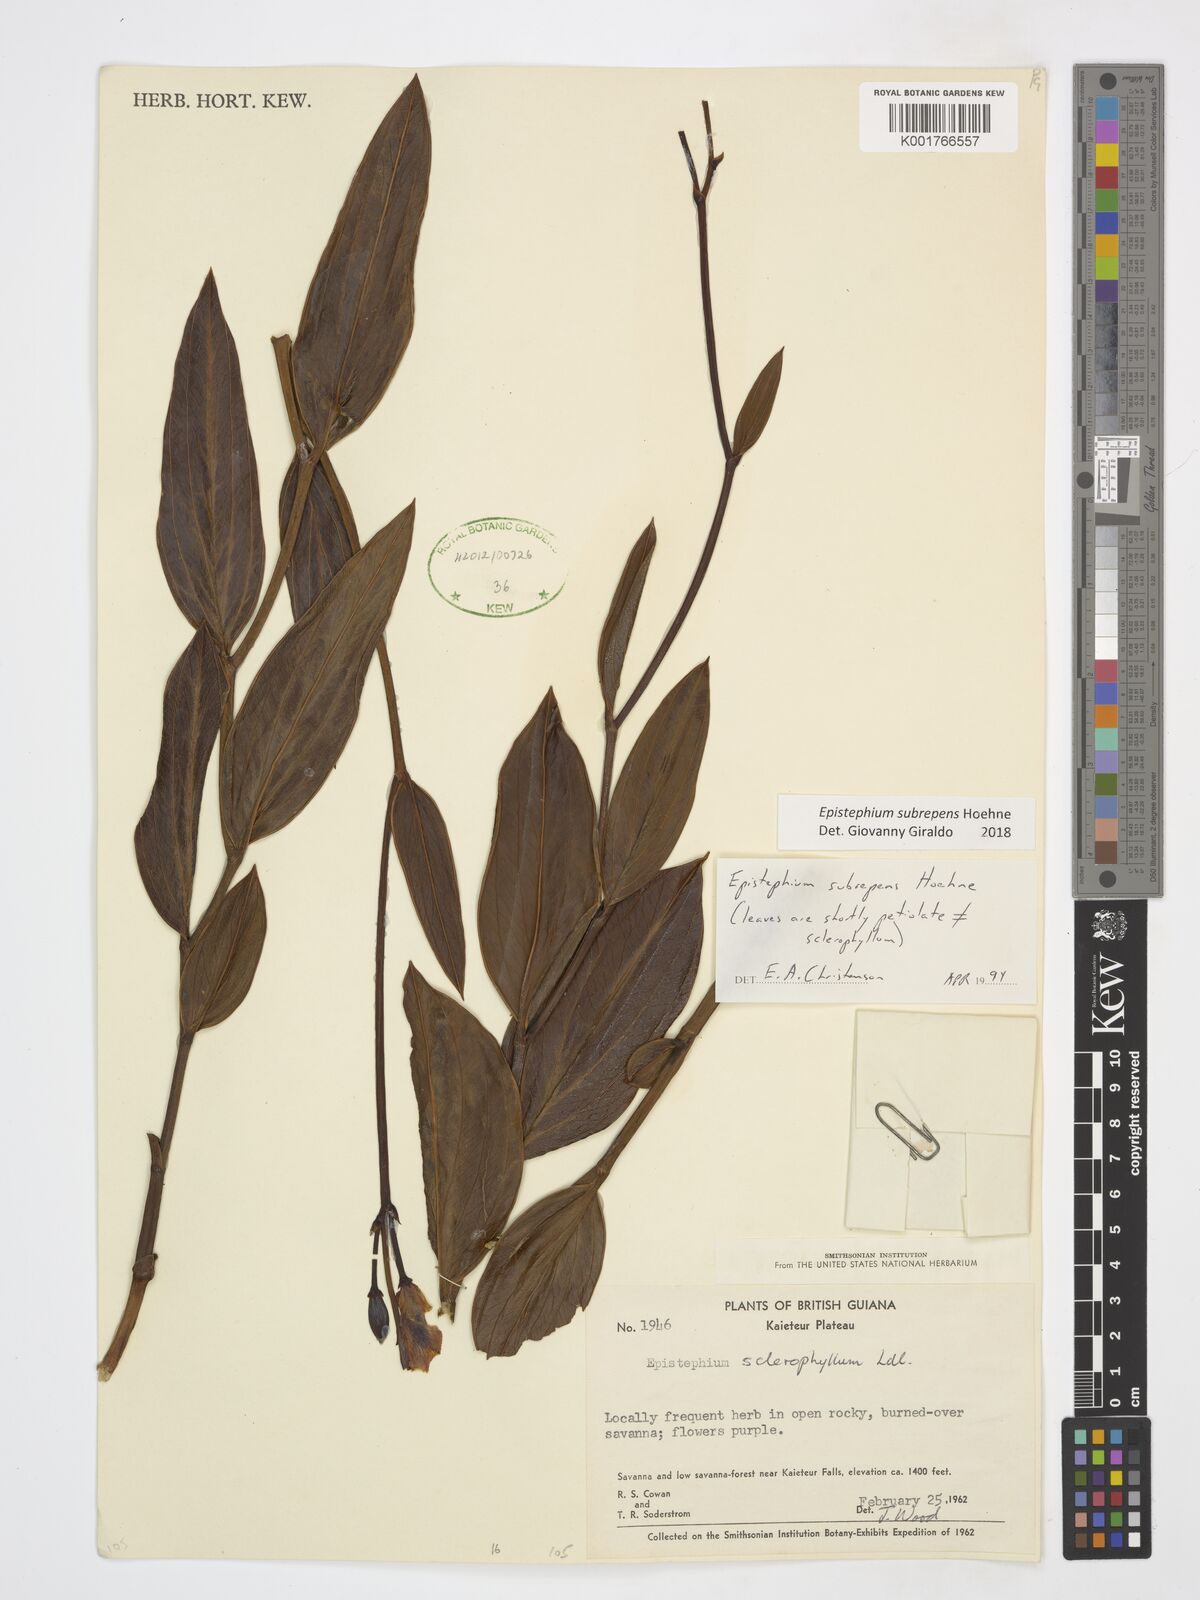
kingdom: Plantae
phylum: Tracheophyta
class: Liliopsida
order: Asparagales
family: Orchidaceae
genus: Epistephium
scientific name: Epistephium subrepens
